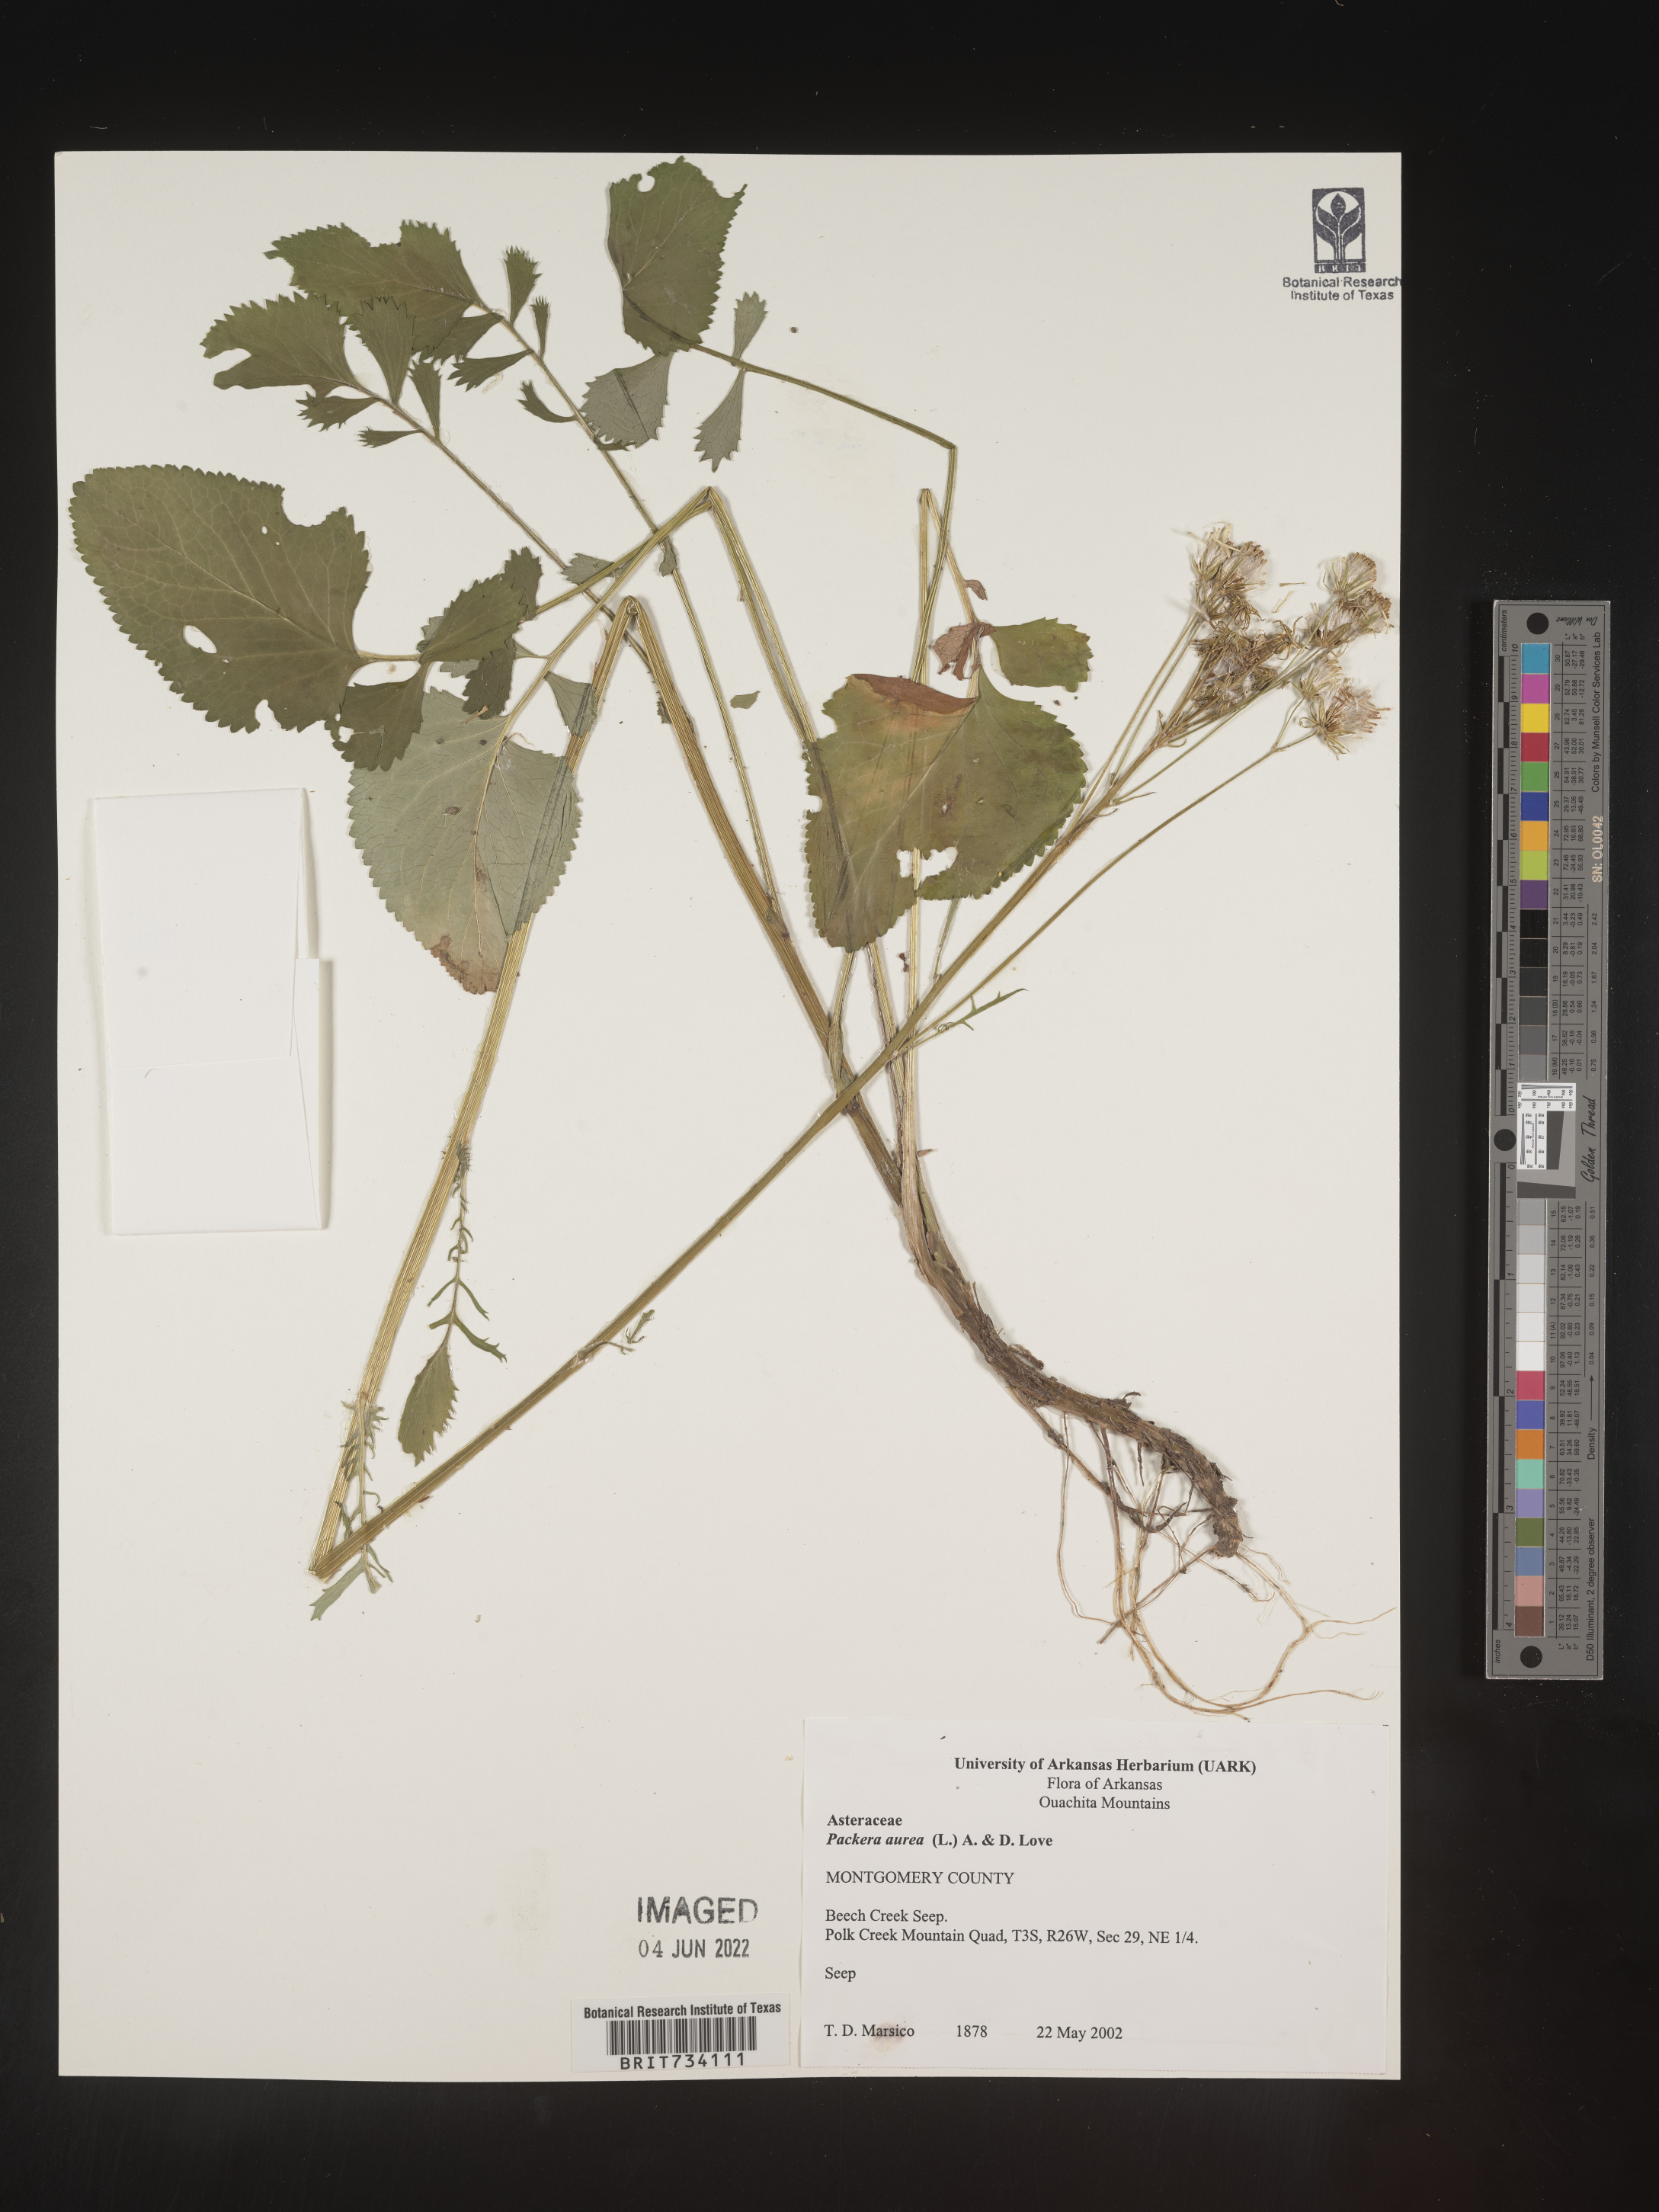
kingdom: Plantae
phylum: Tracheophyta
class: Magnoliopsida
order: Asterales
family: Asteraceae
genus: Packera
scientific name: Packera aurea
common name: Golden groundsel
